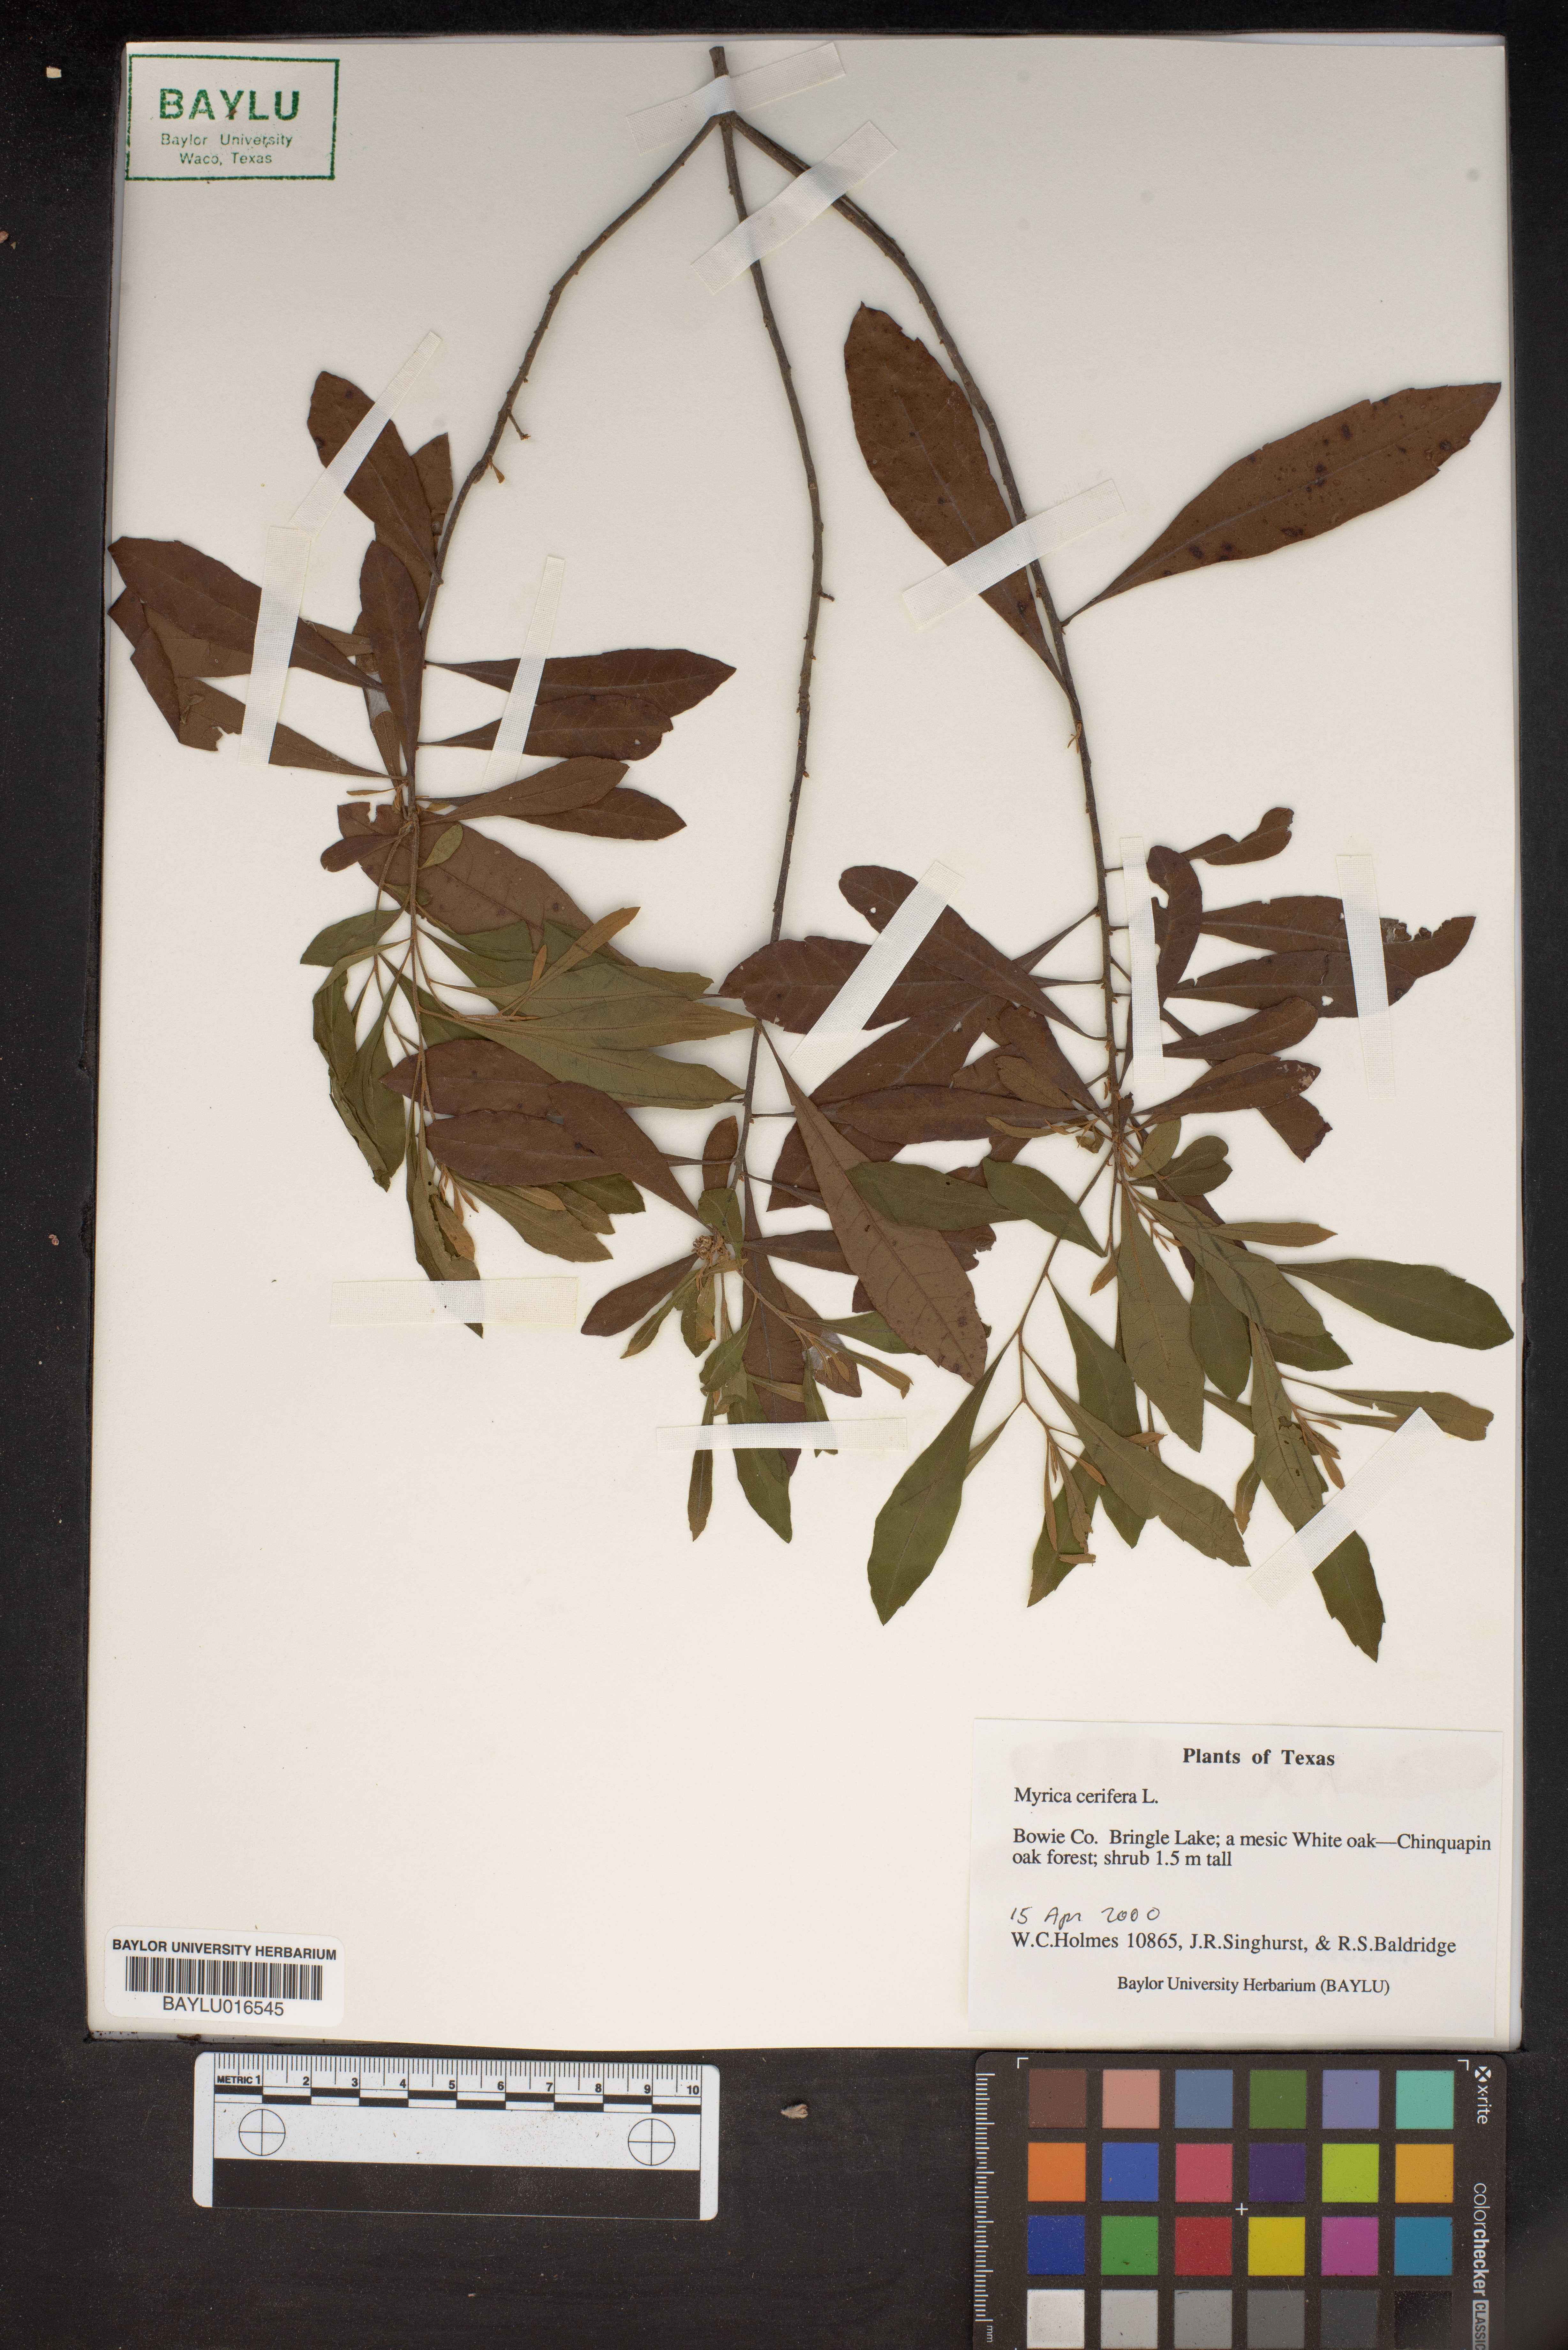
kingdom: Plantae
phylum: Tracheophyta
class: Magnoliopsida
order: Fagales
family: Myricaceae
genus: Morella
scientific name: Morella cerifera
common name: Wax myrtle
